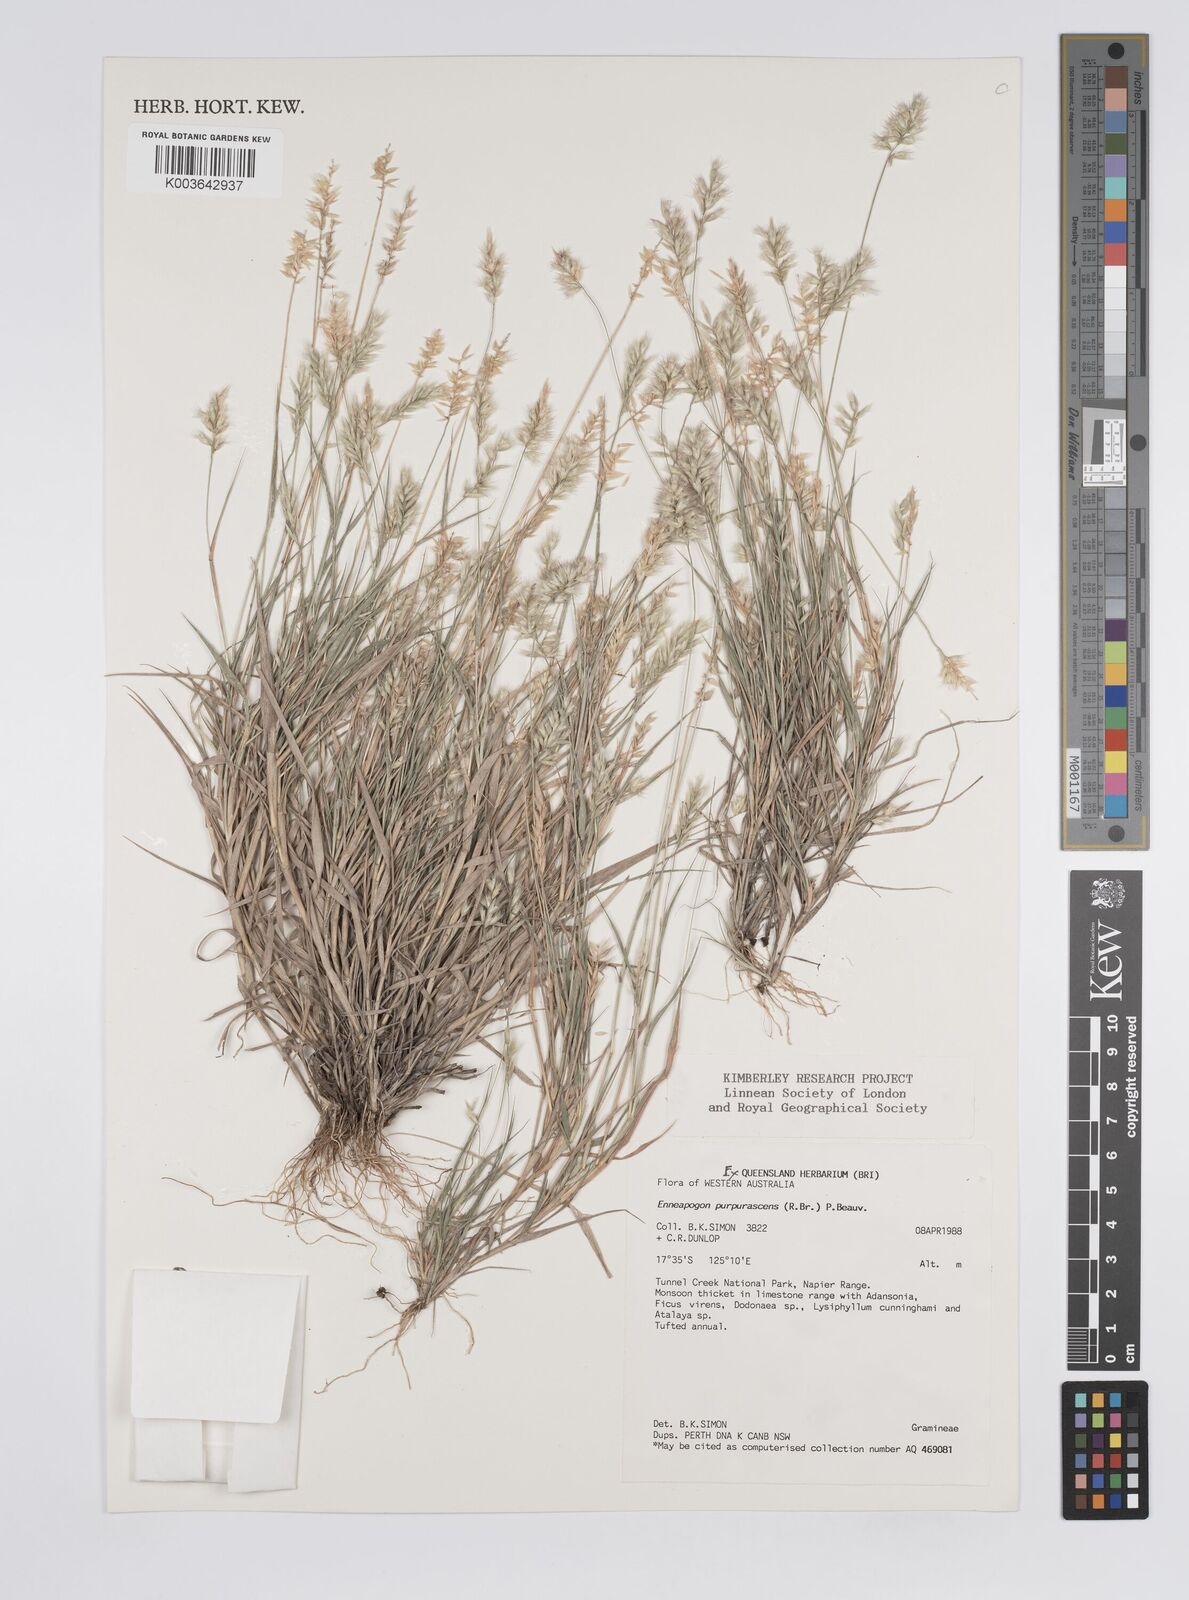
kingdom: Plantae
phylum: Tracheophyta
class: Liliopsida
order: Poales
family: Poaceae
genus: Enneapogon
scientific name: Enneapogon decipiens
